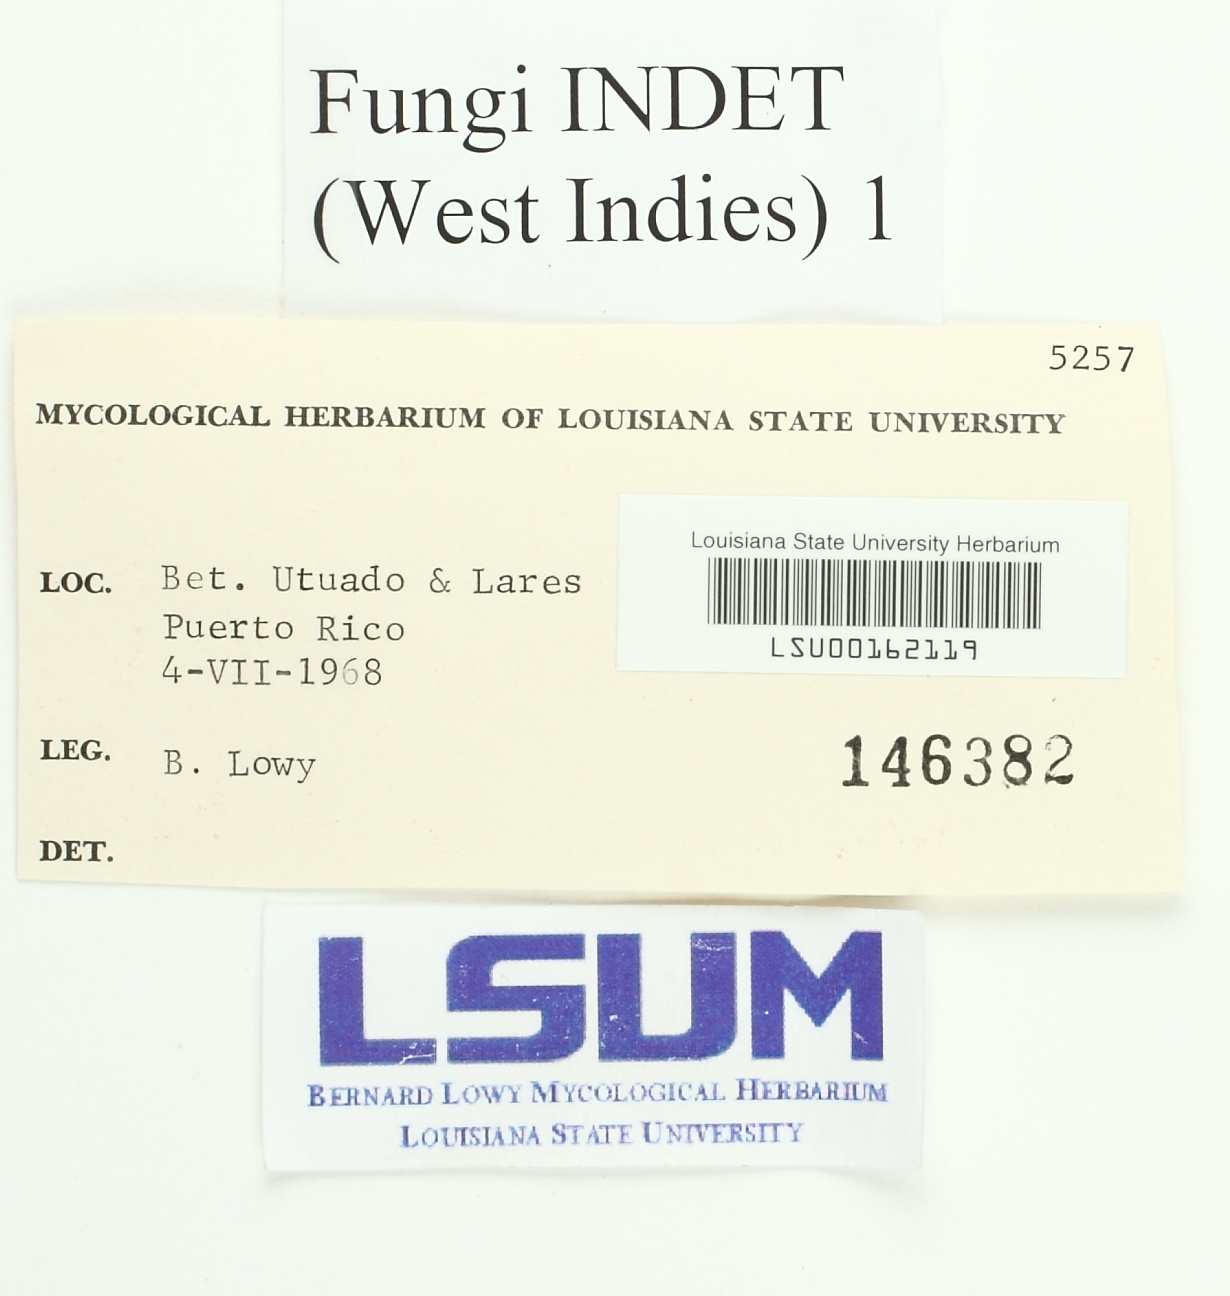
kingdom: Fungi
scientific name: Fungi
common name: Fungi
